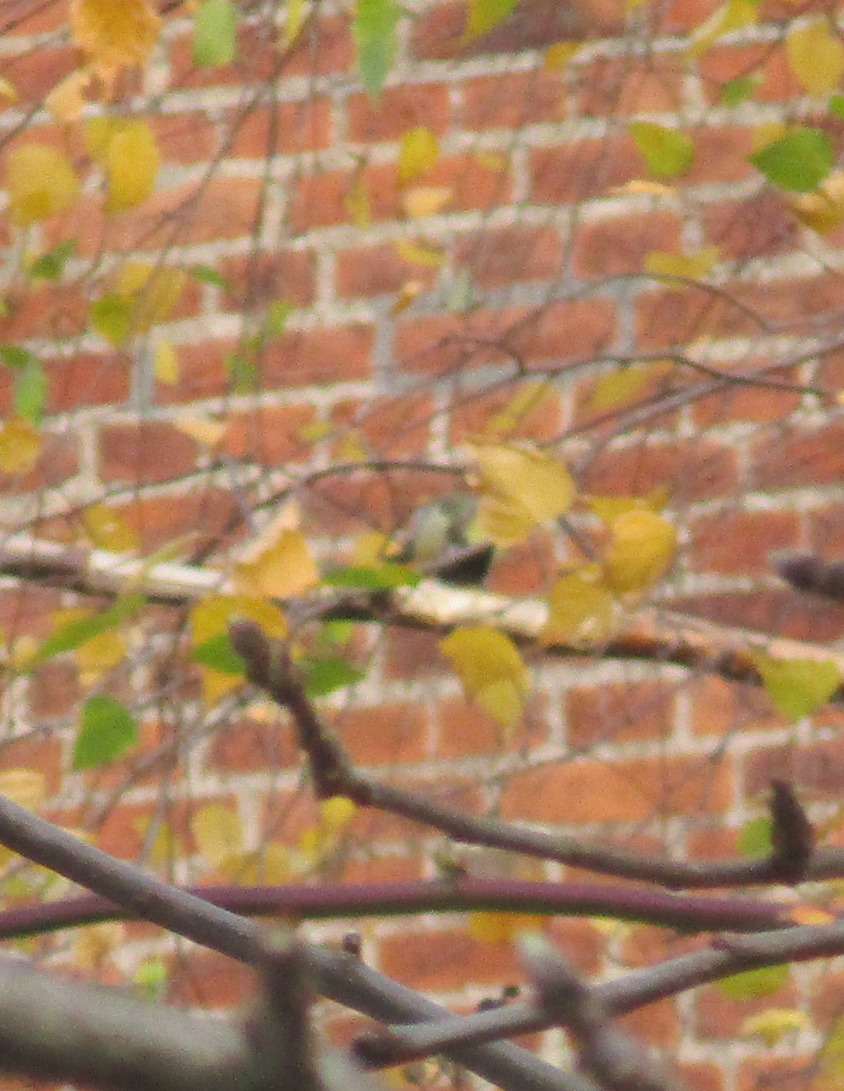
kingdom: Animalia
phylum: Chordata
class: Aves
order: Passeriformes
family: Paridae
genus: Parus
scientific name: Parus major
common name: Musvit
